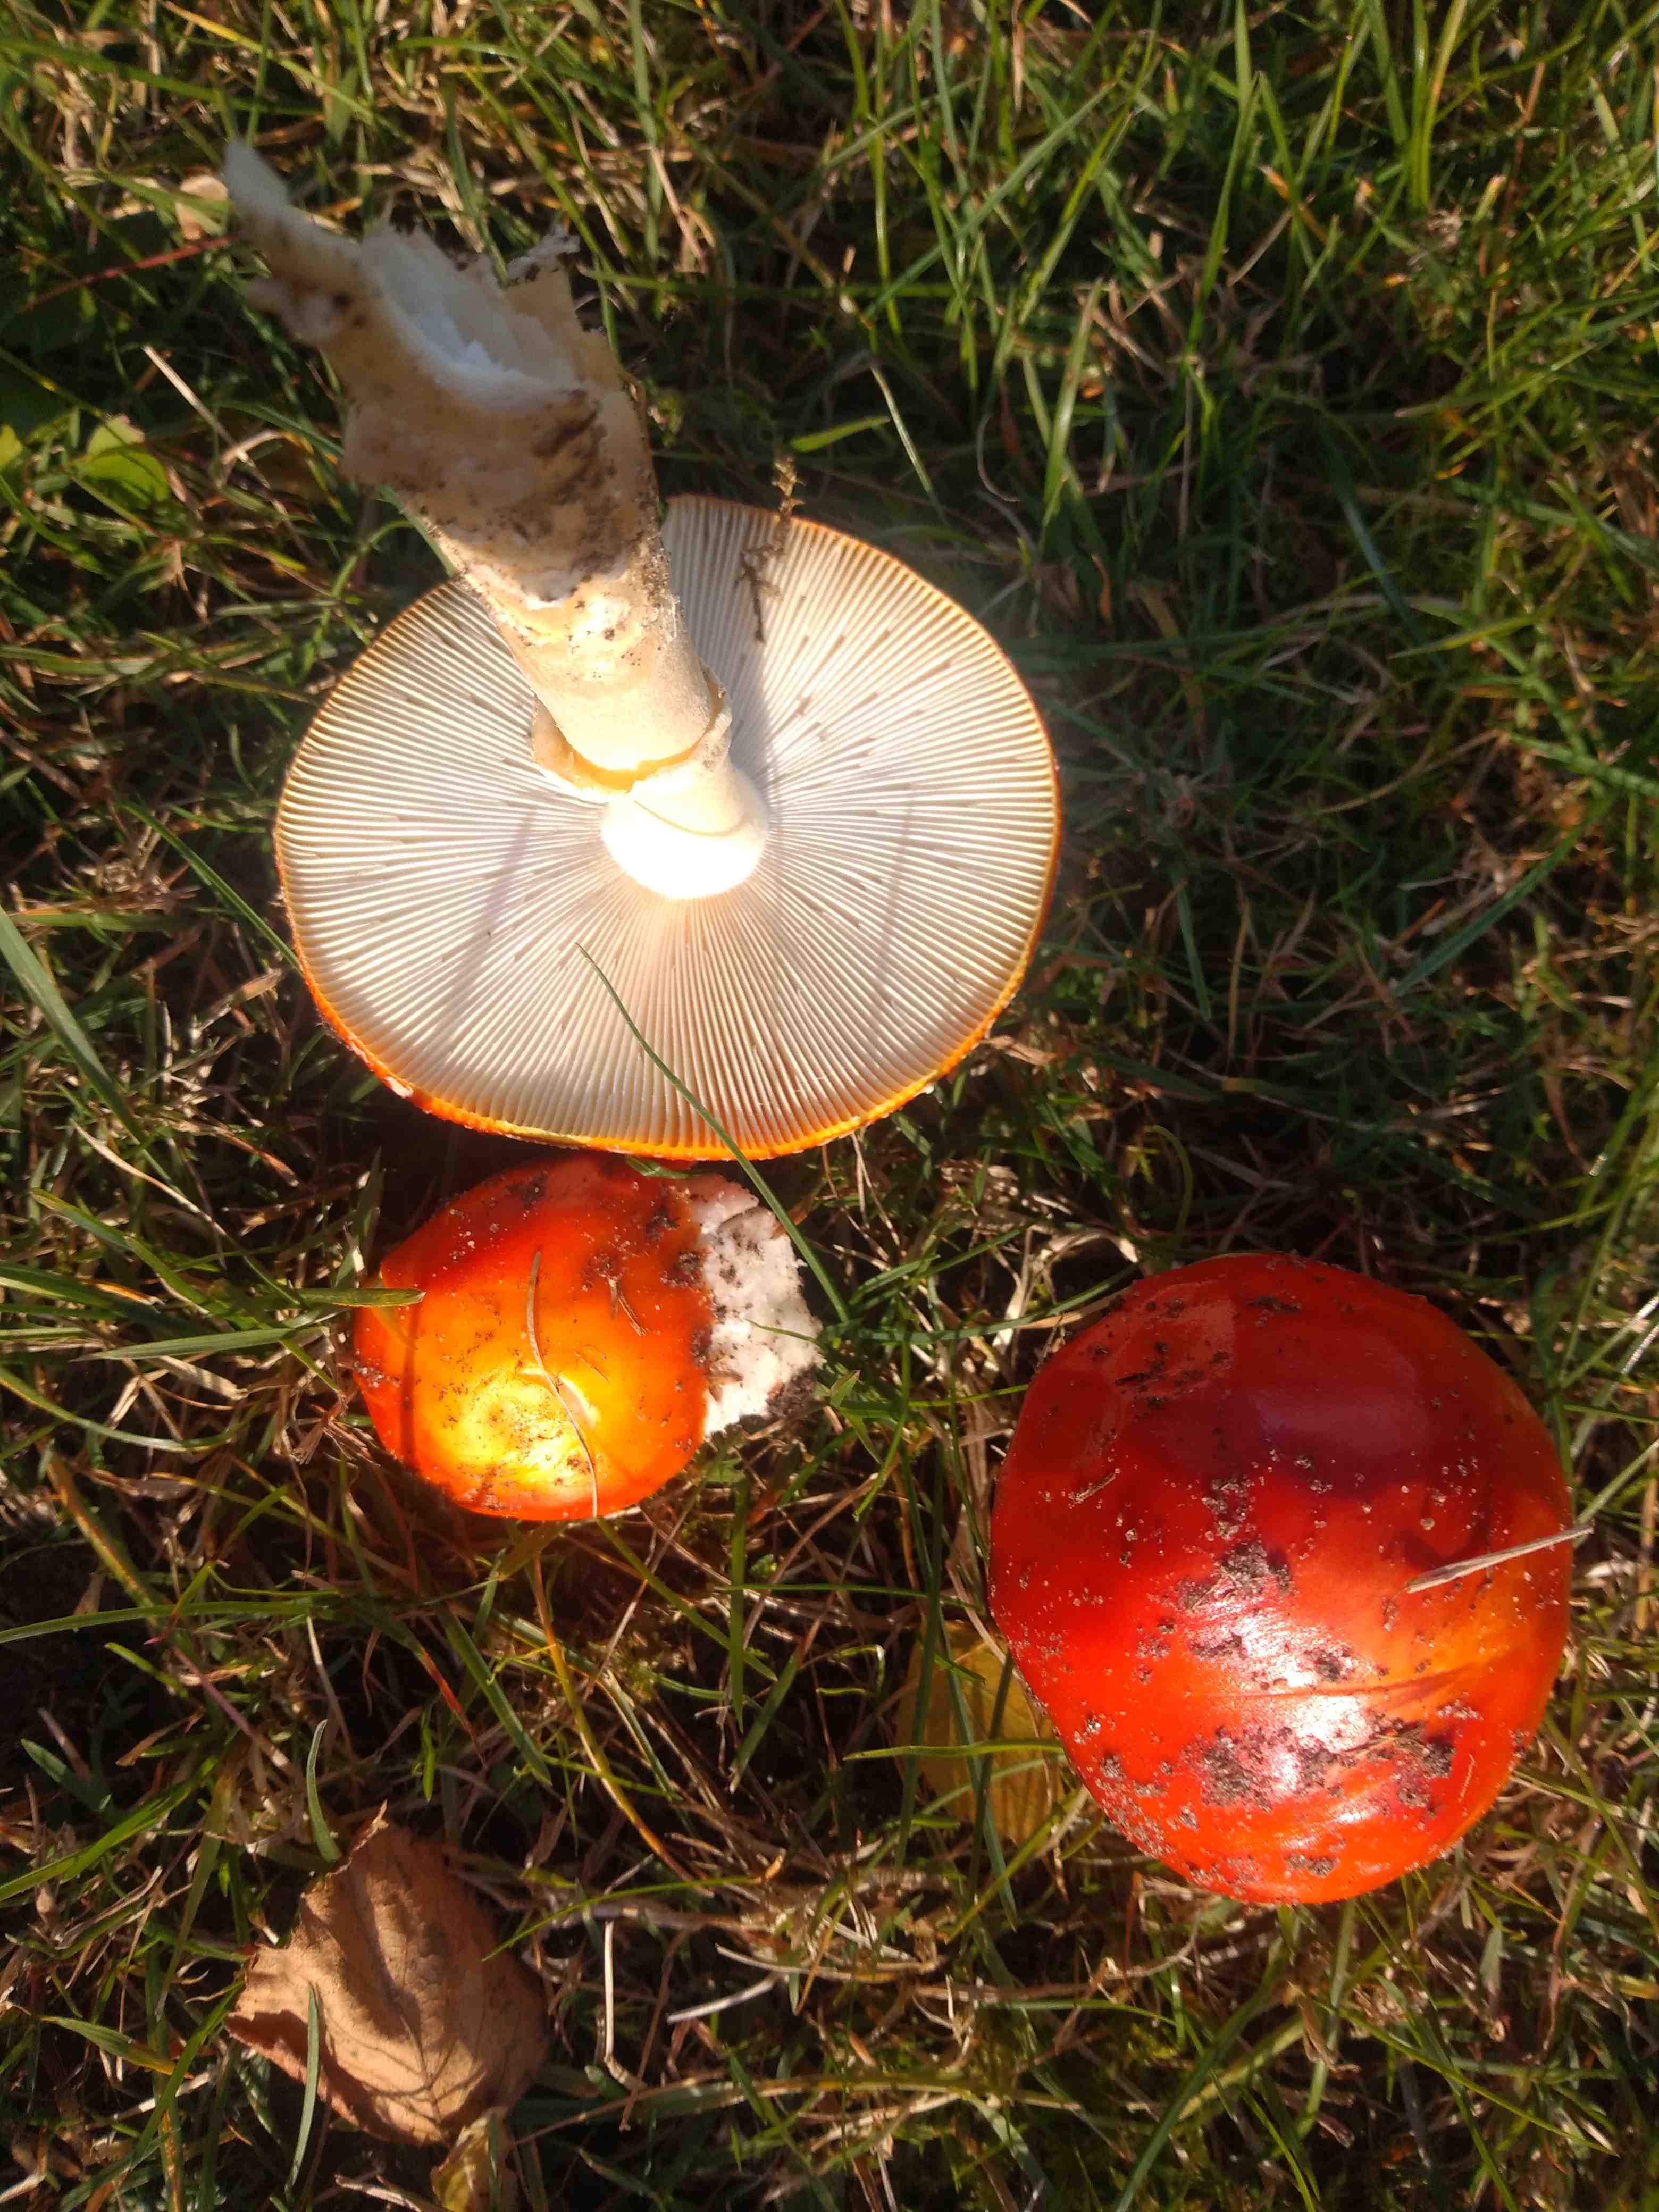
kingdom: Fungi
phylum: Basidiomycota
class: Agaricomycetes
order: Agaricales
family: Amanitaceae
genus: Amanita
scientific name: Amanita muscaria
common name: rød fluesvamp
